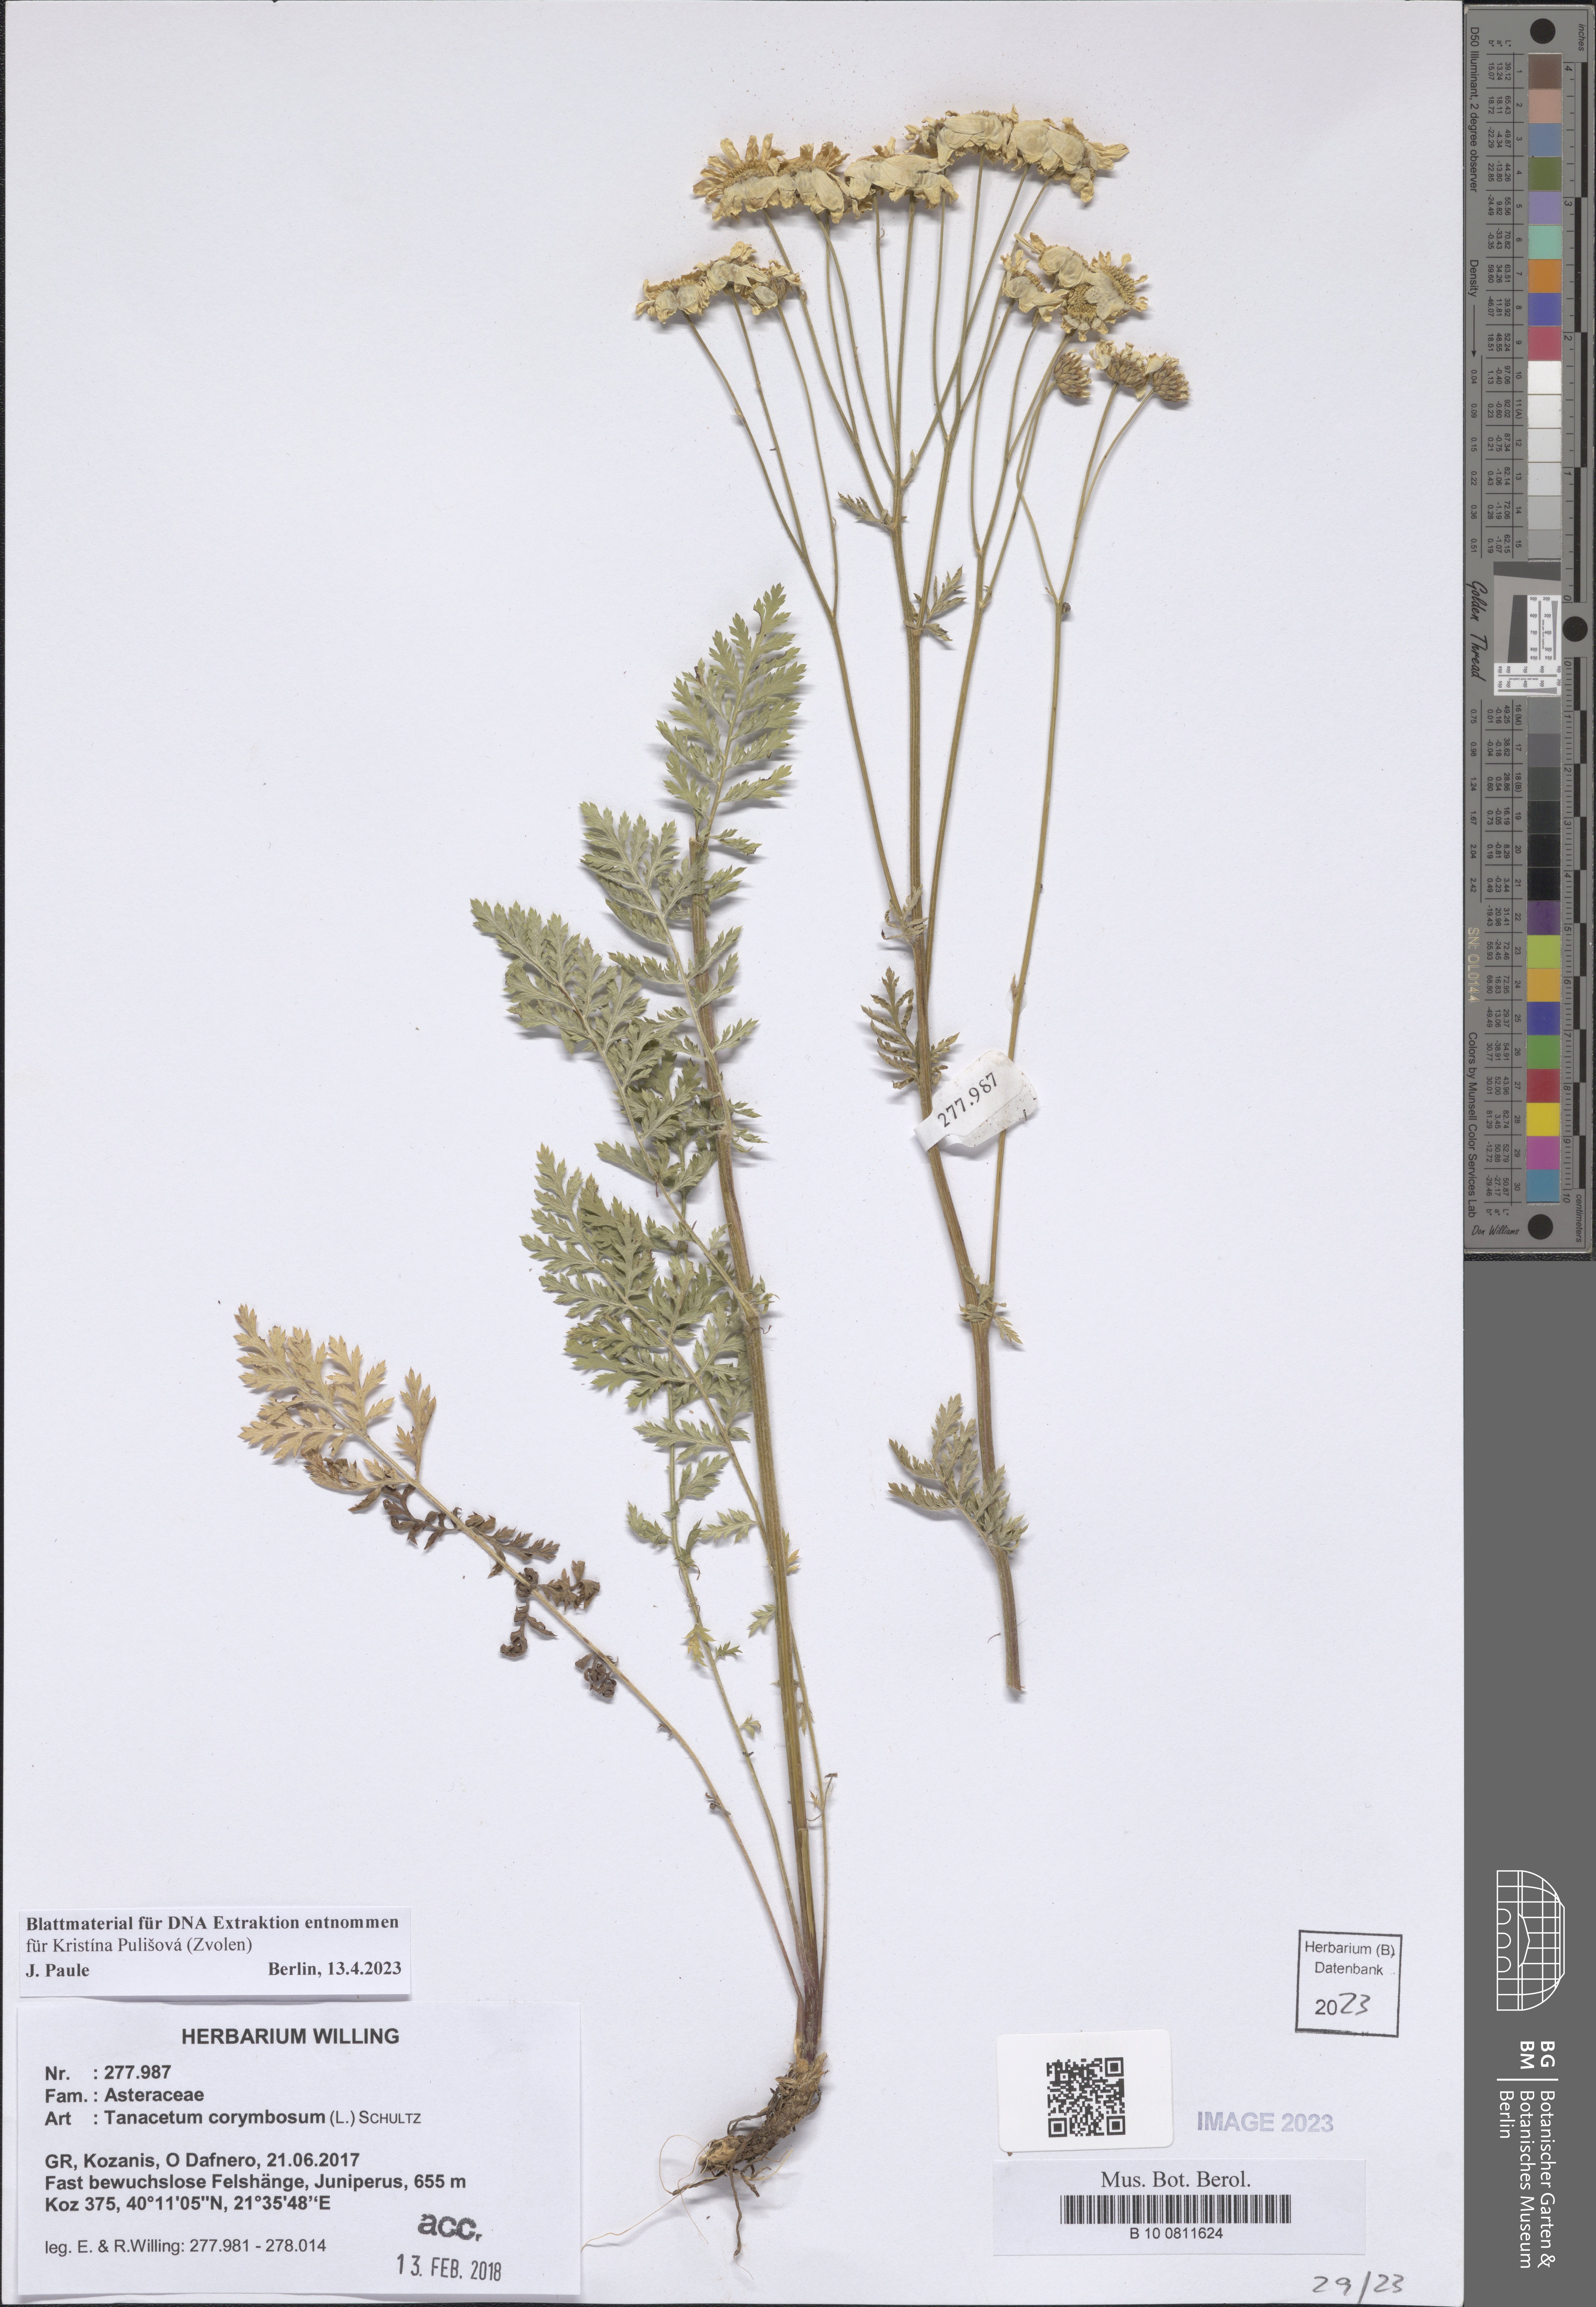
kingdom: Plantae
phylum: Tracheophyta
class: Magnoliopsida
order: Asterales
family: Asteraceae
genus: Tanacetum
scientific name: Tanacetum corymbosum
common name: Scentless feverfew
